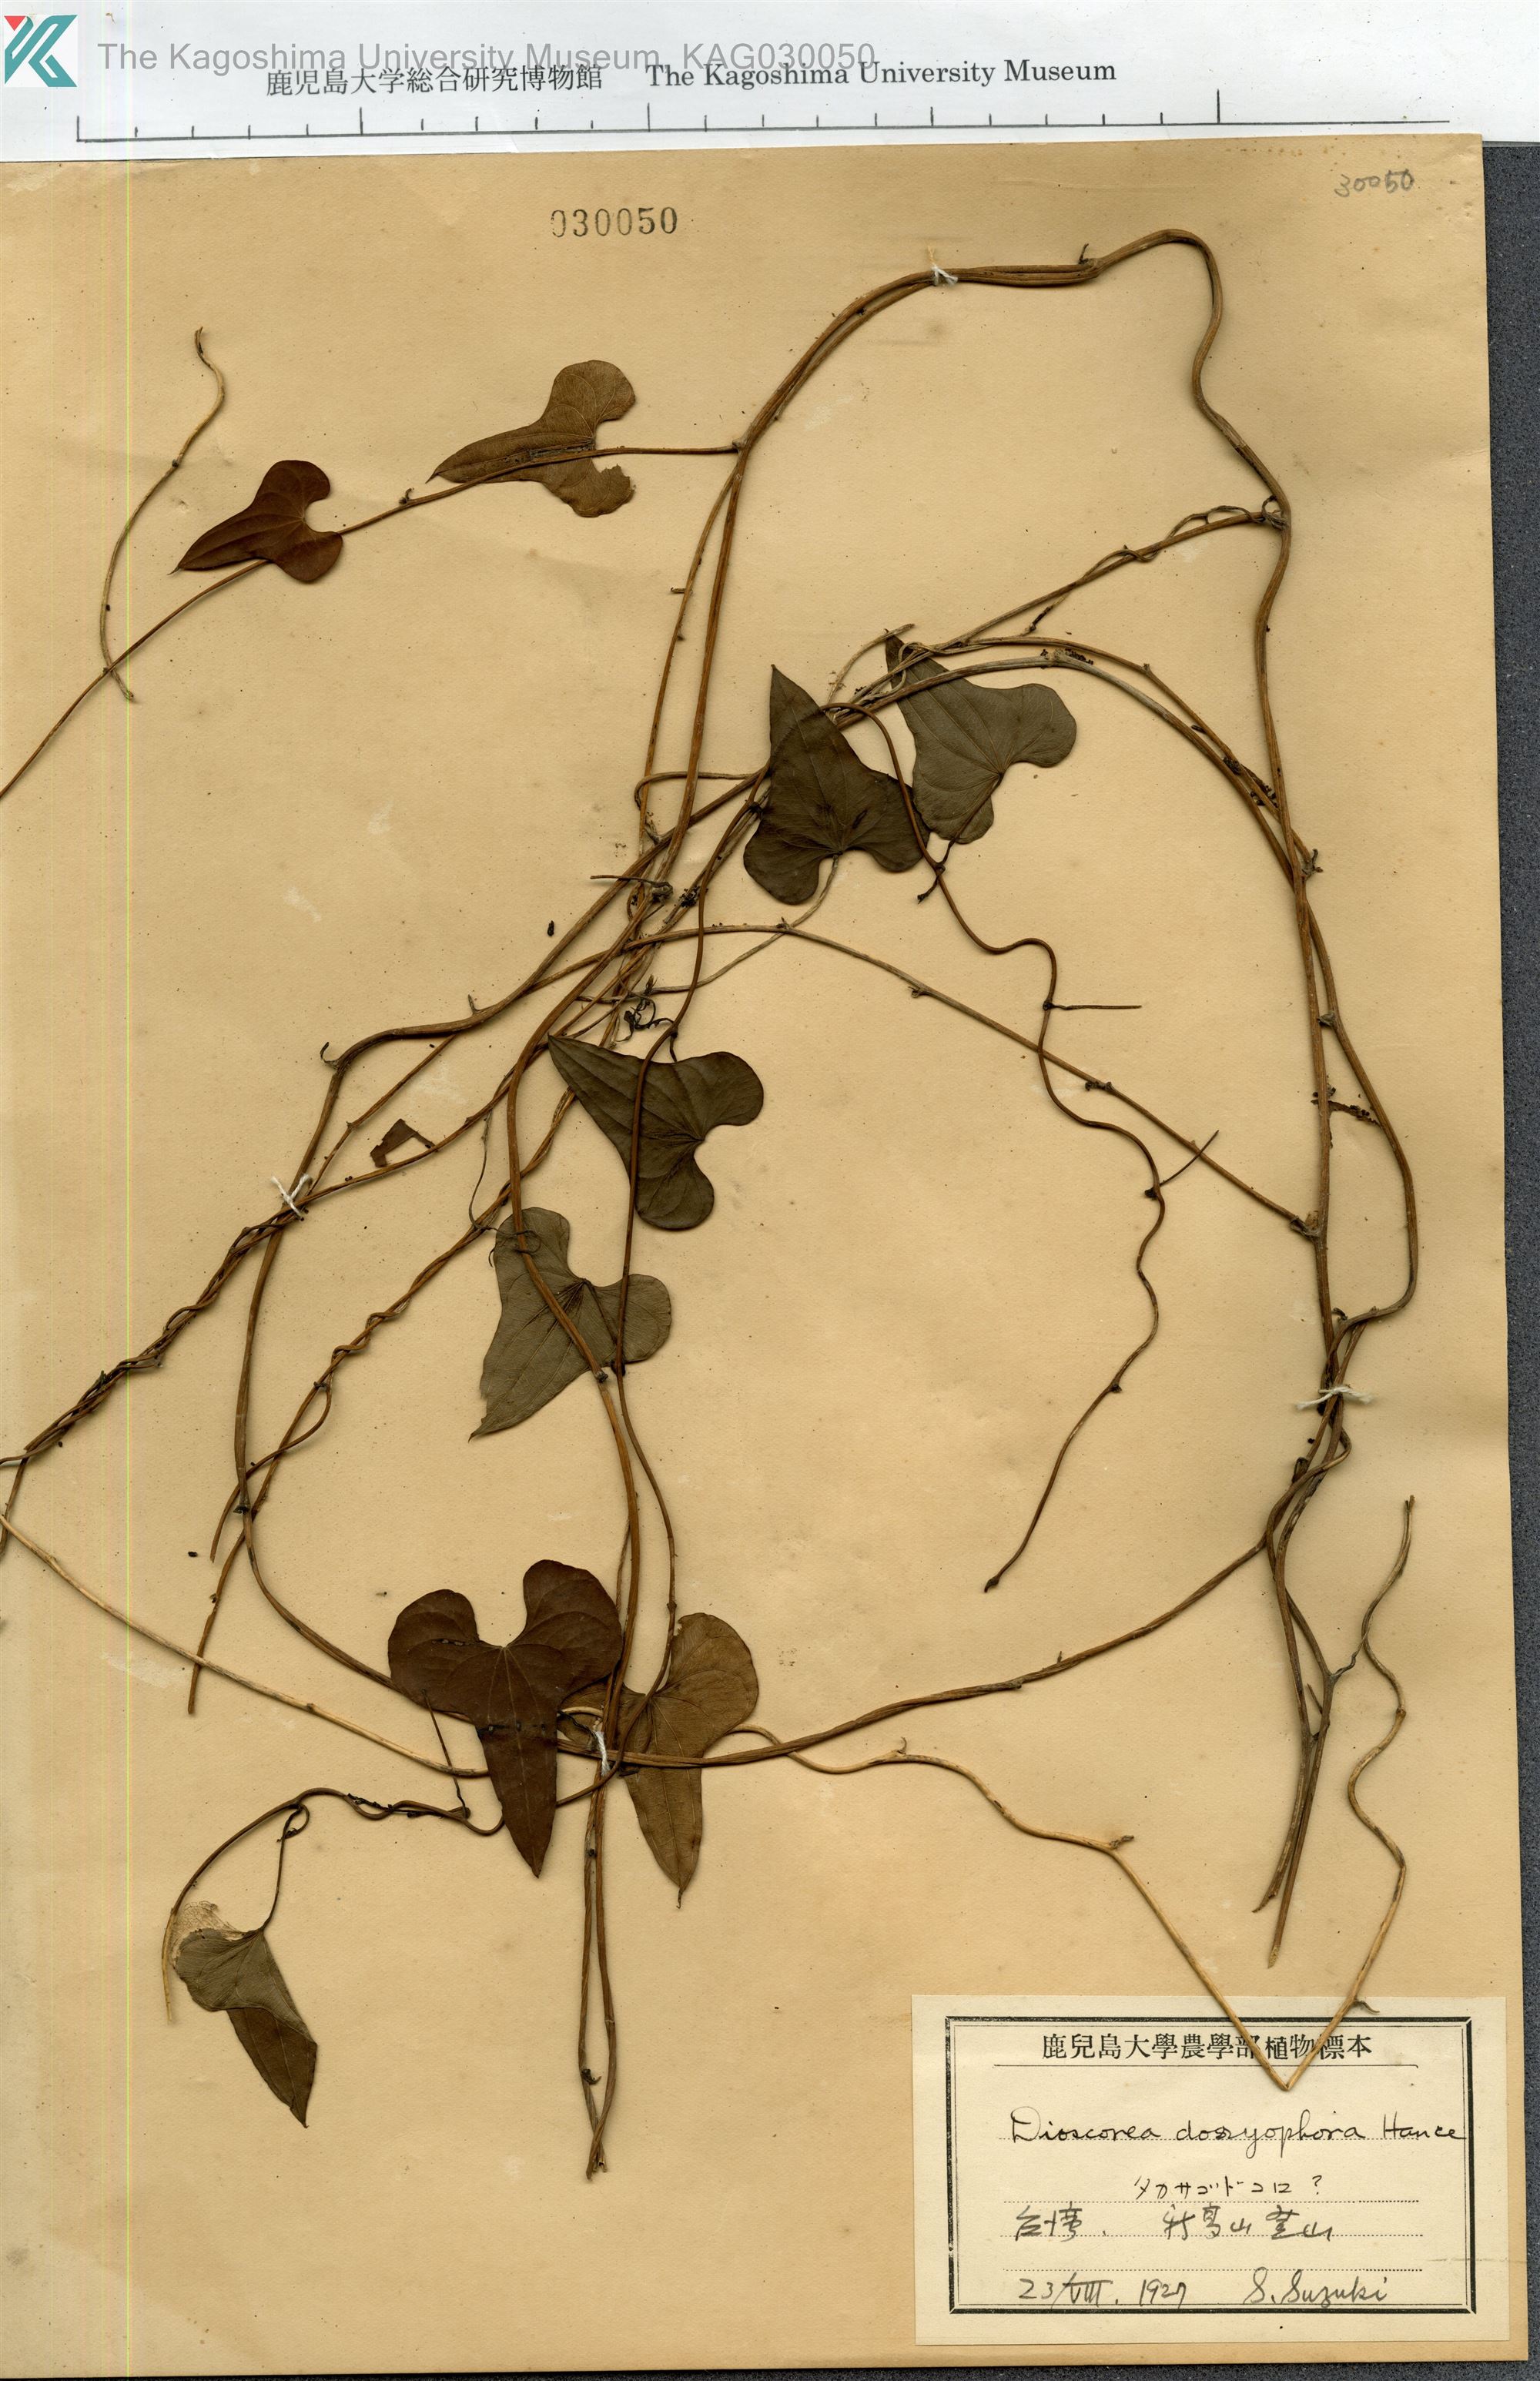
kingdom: Plantae
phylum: Tracheophyta
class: Liliopsida
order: Dioscoreales
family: Dioscoreaceae
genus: Dioscorea
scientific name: Dioscorea polystachya
